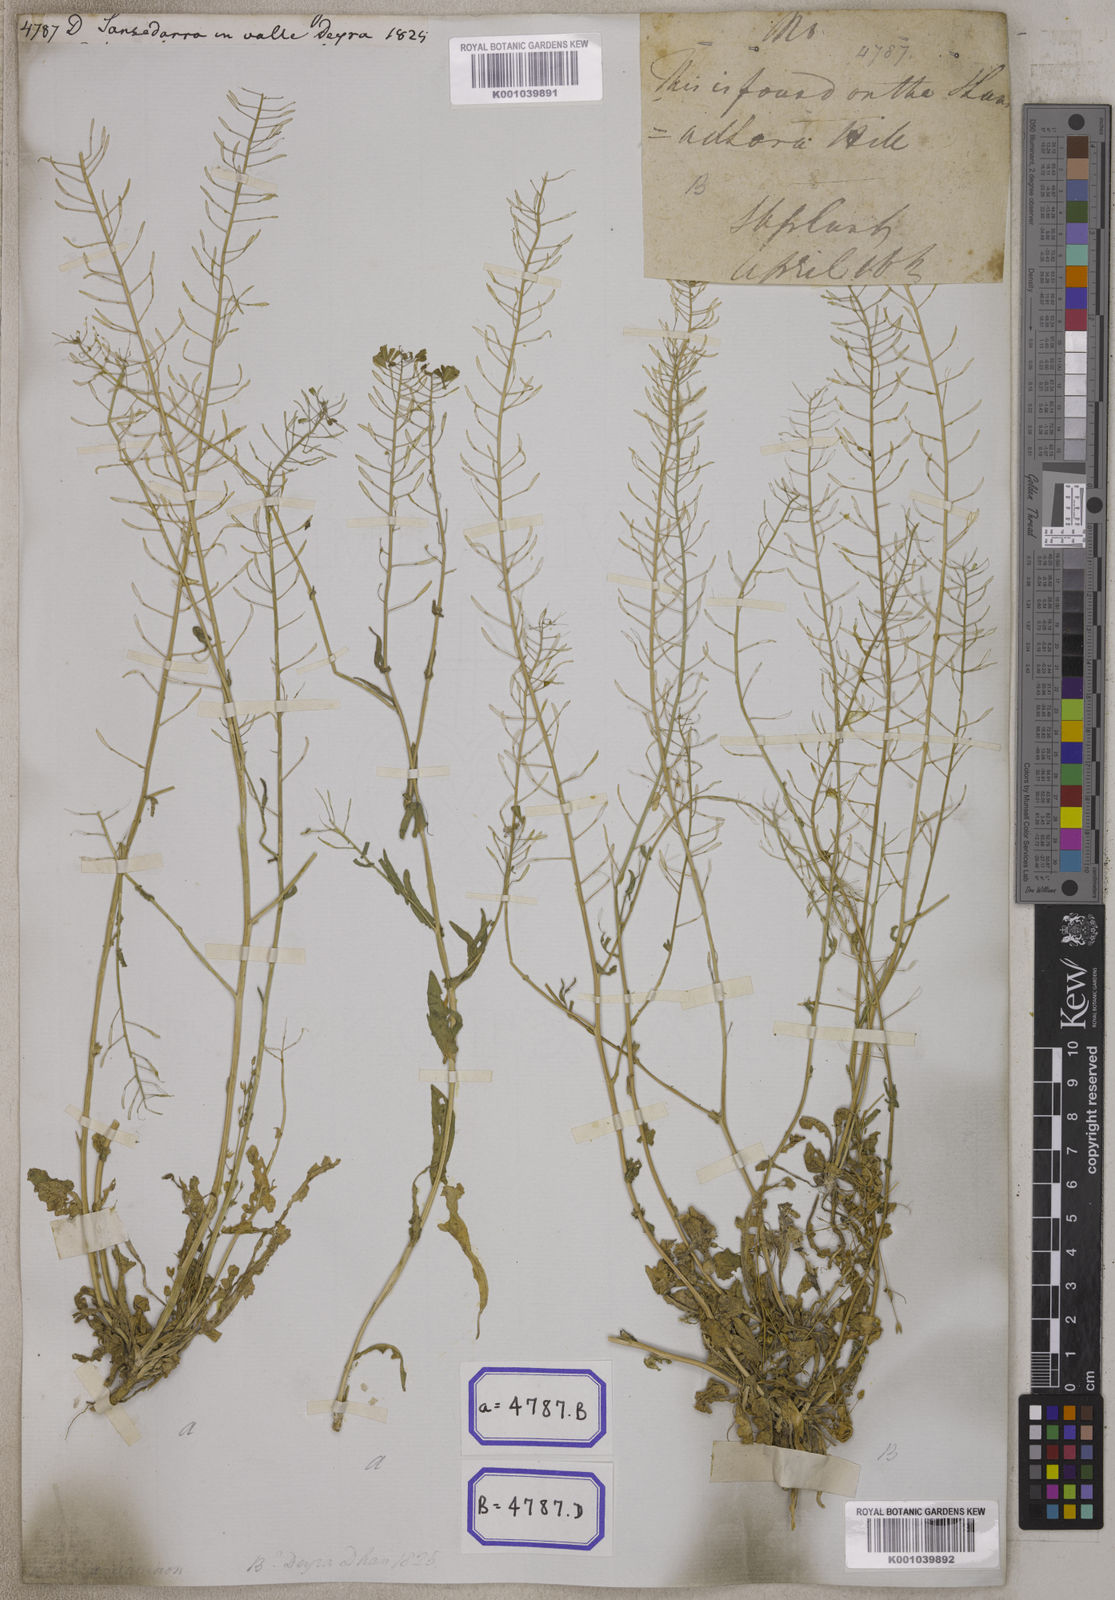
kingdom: Plantae
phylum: Tracheophyta
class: Magnoliopsida
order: Brassicales
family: Brassicaceae
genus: Capsella
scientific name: Capsella bursa-pastoris
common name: Shepherd's purse
